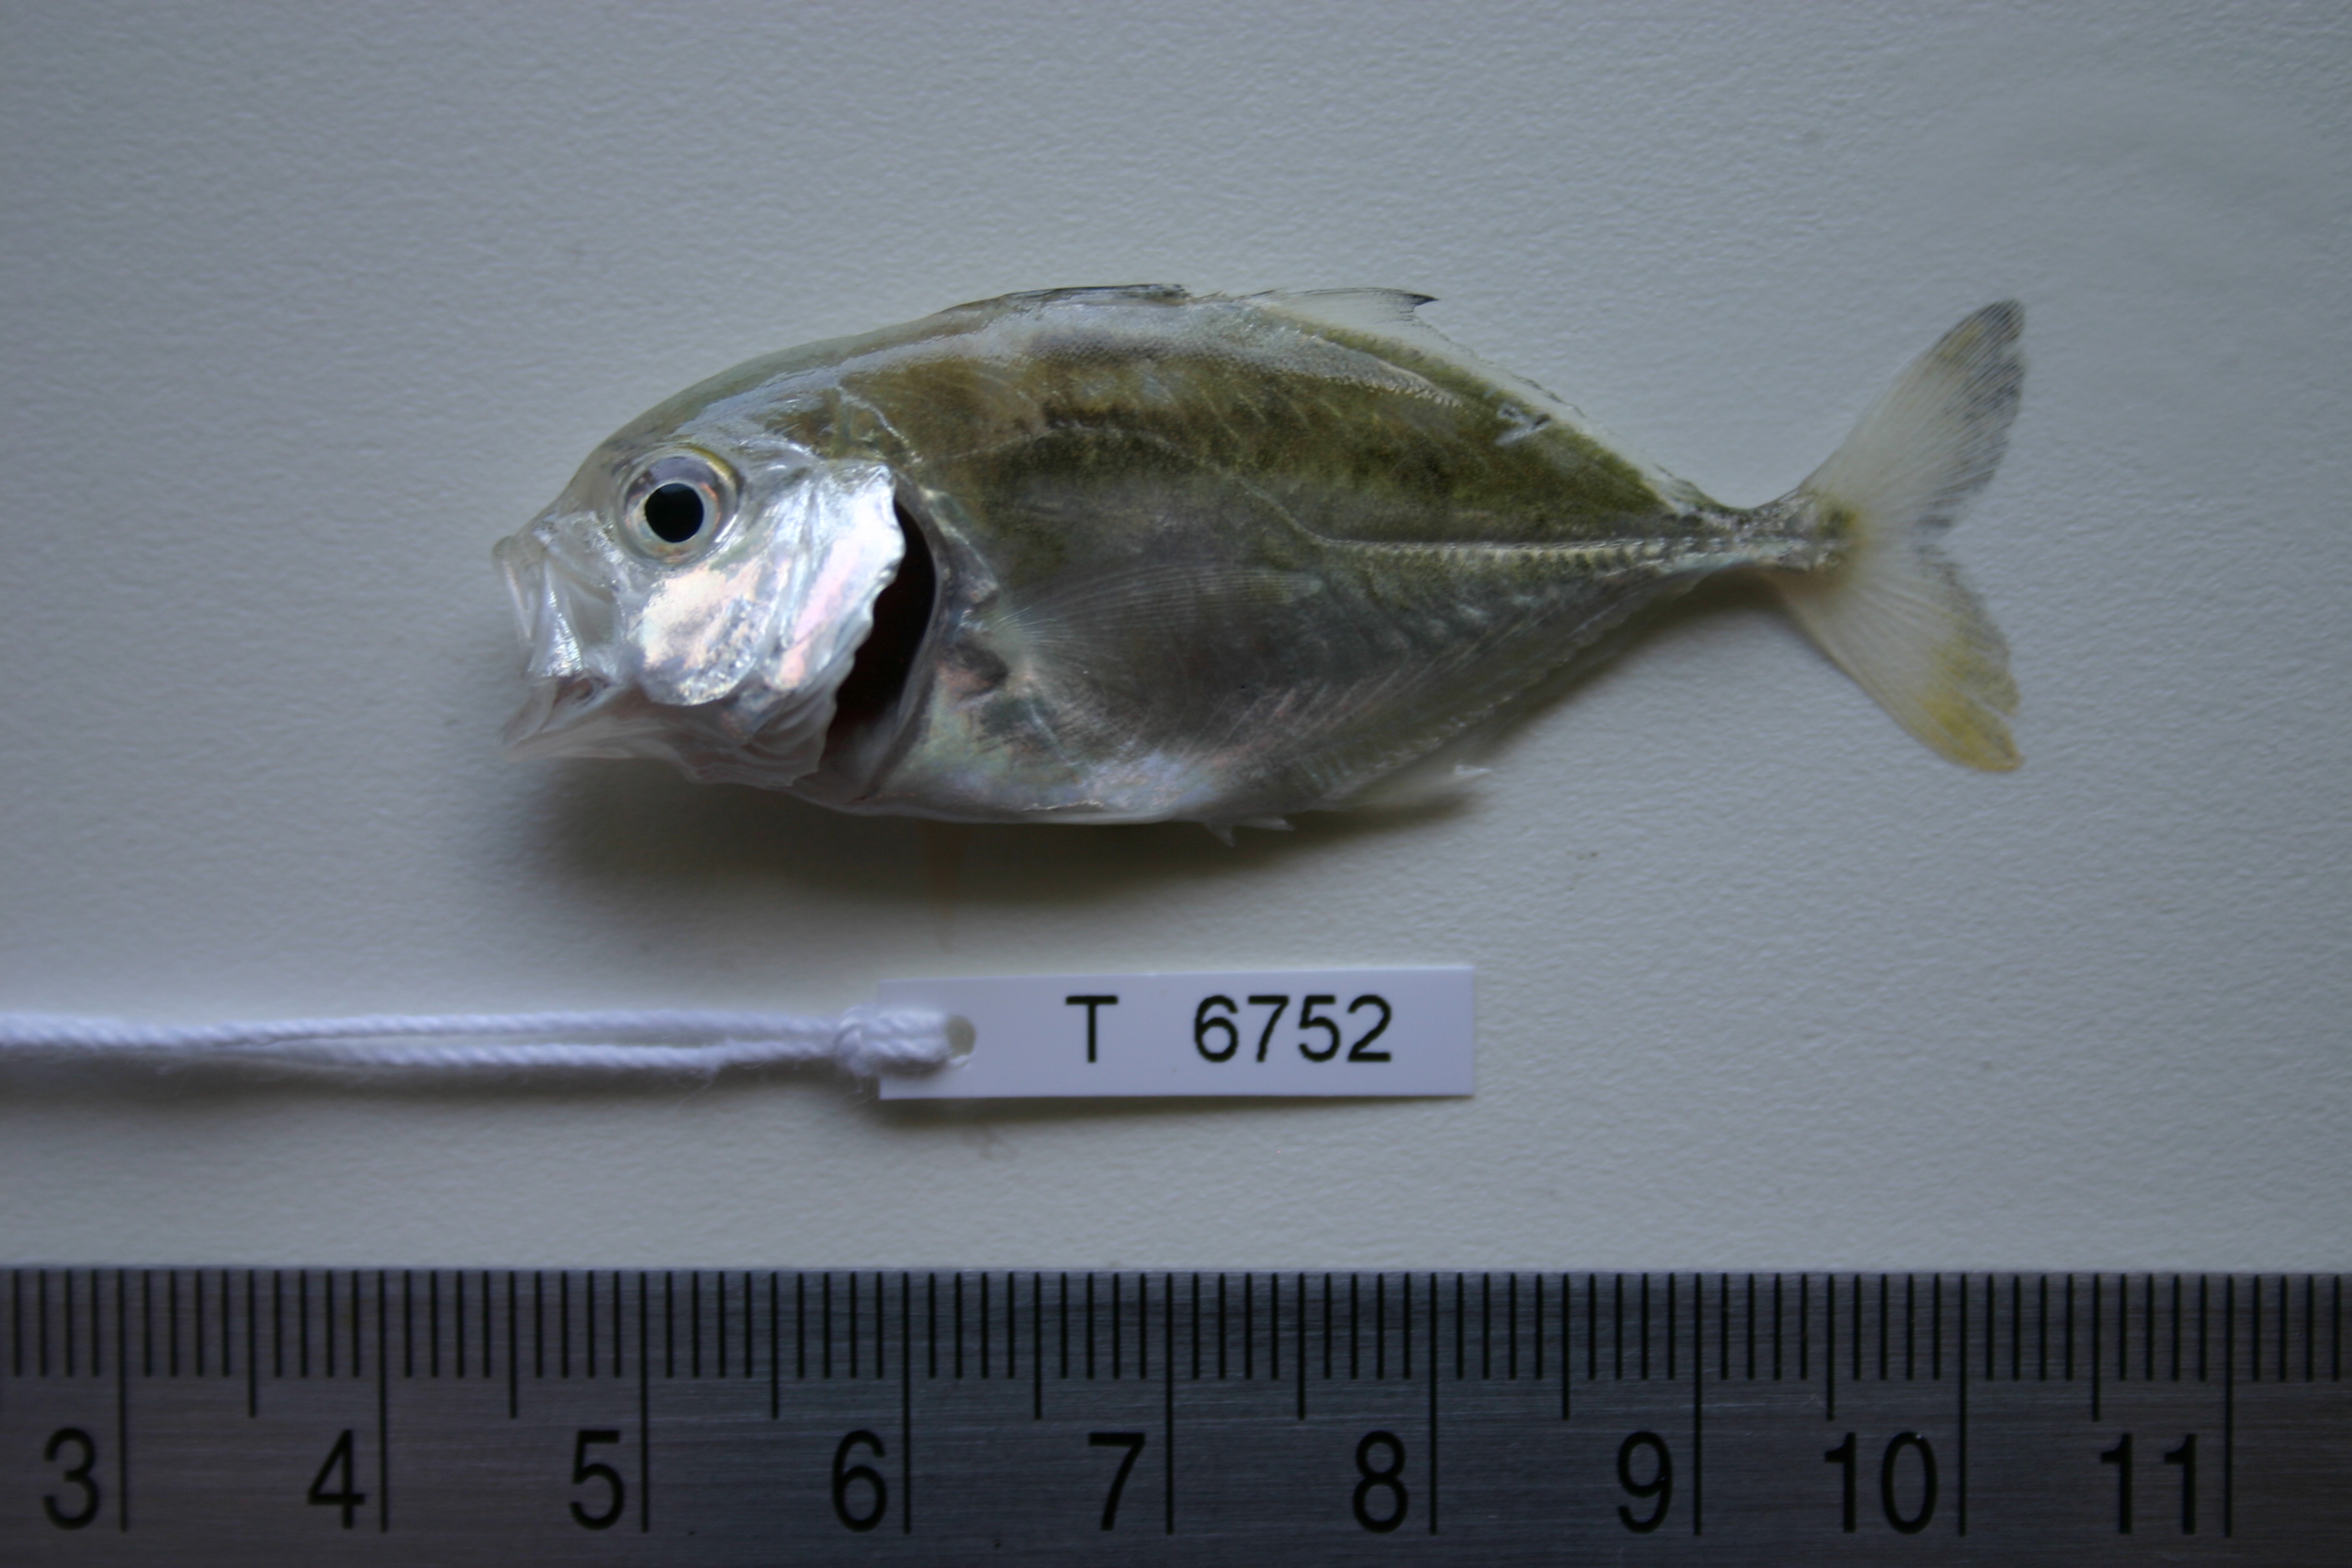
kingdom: Animalia
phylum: Chordata
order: Perciformes
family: Carangidae
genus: Caranx
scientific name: Caranx ignobilis
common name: Giant trevally
